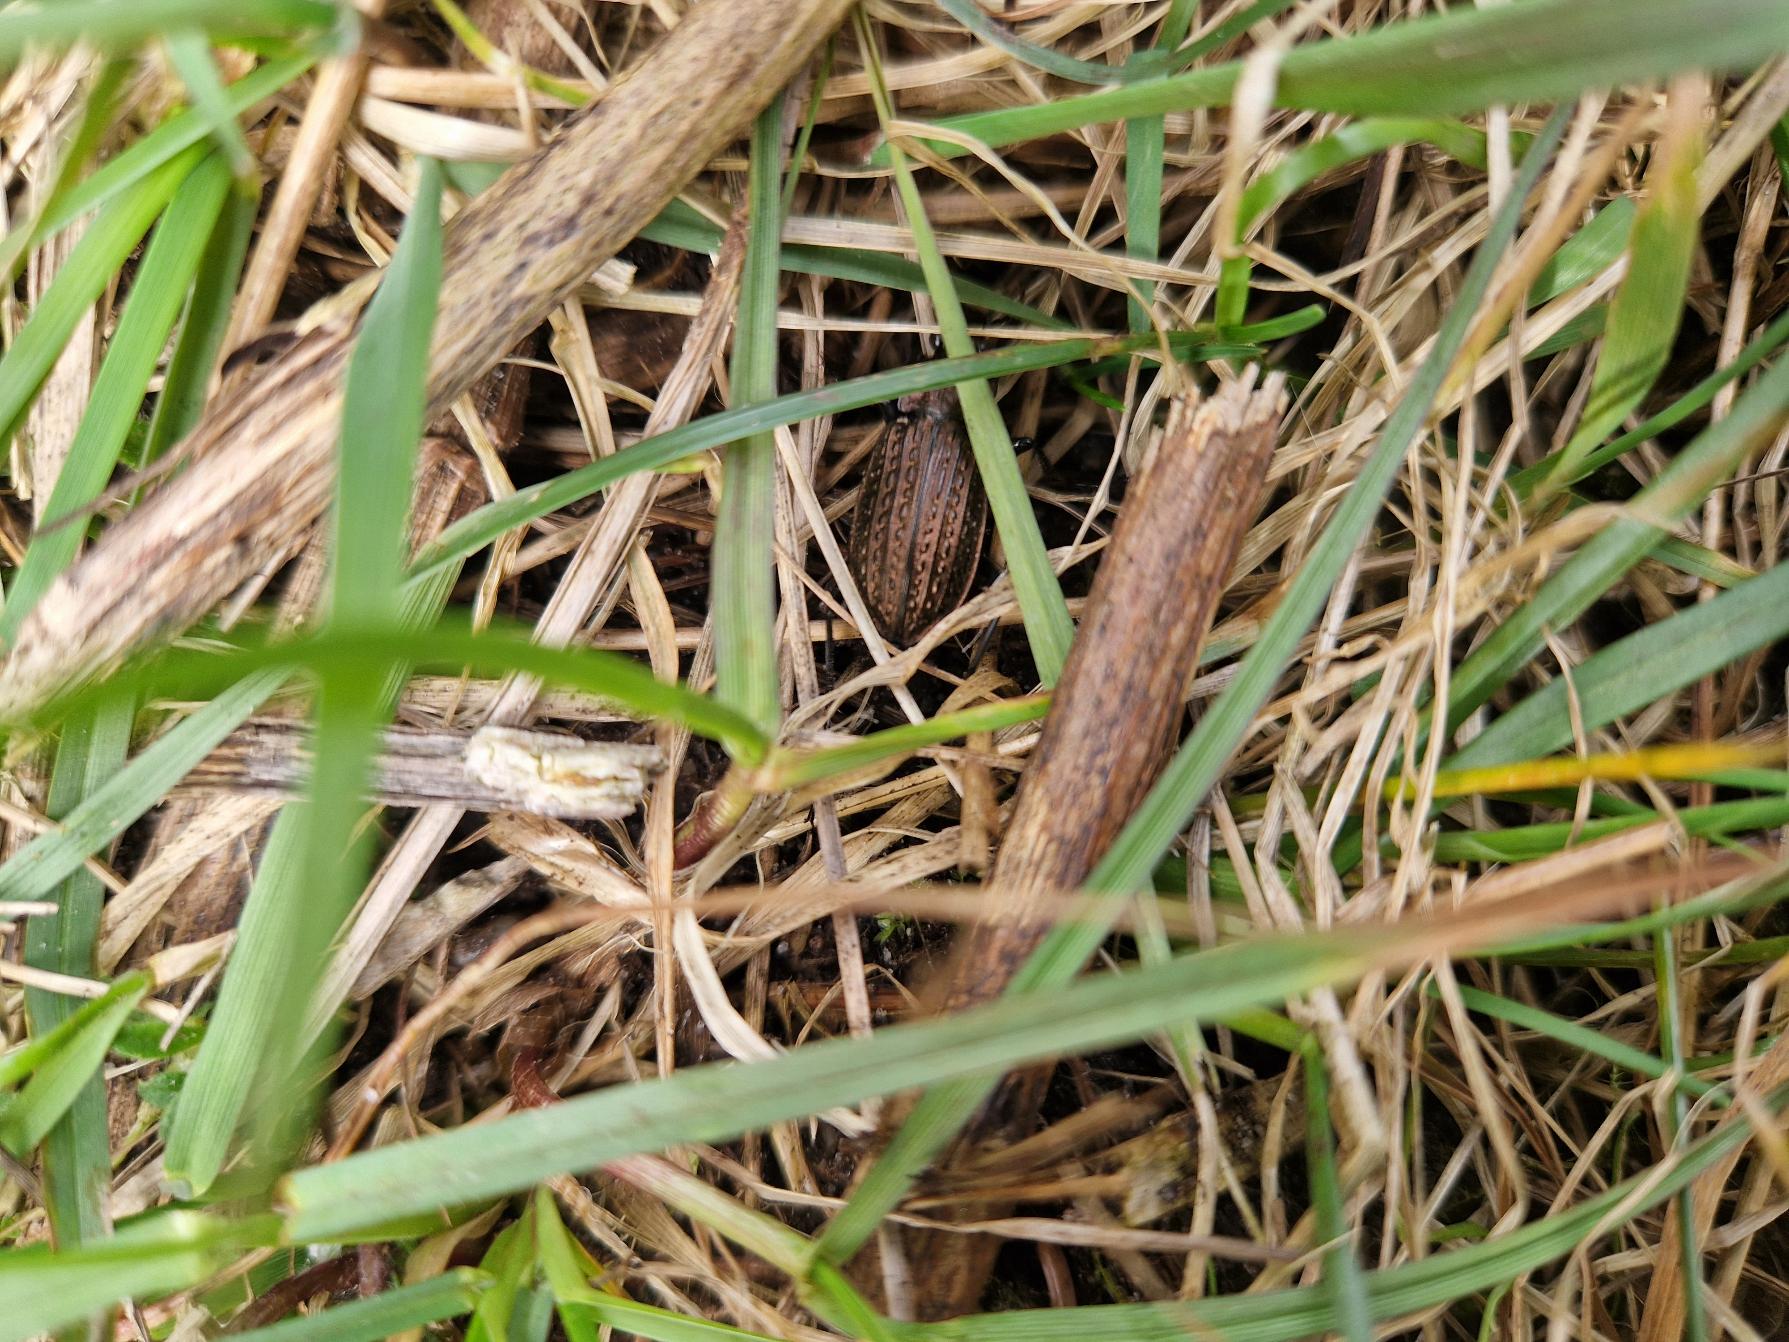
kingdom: Animalia
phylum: Arthropoda
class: Insecta
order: Coleoptera
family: Carabidae
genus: Carabus
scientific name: Carabus granulatus
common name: Kornet løber
